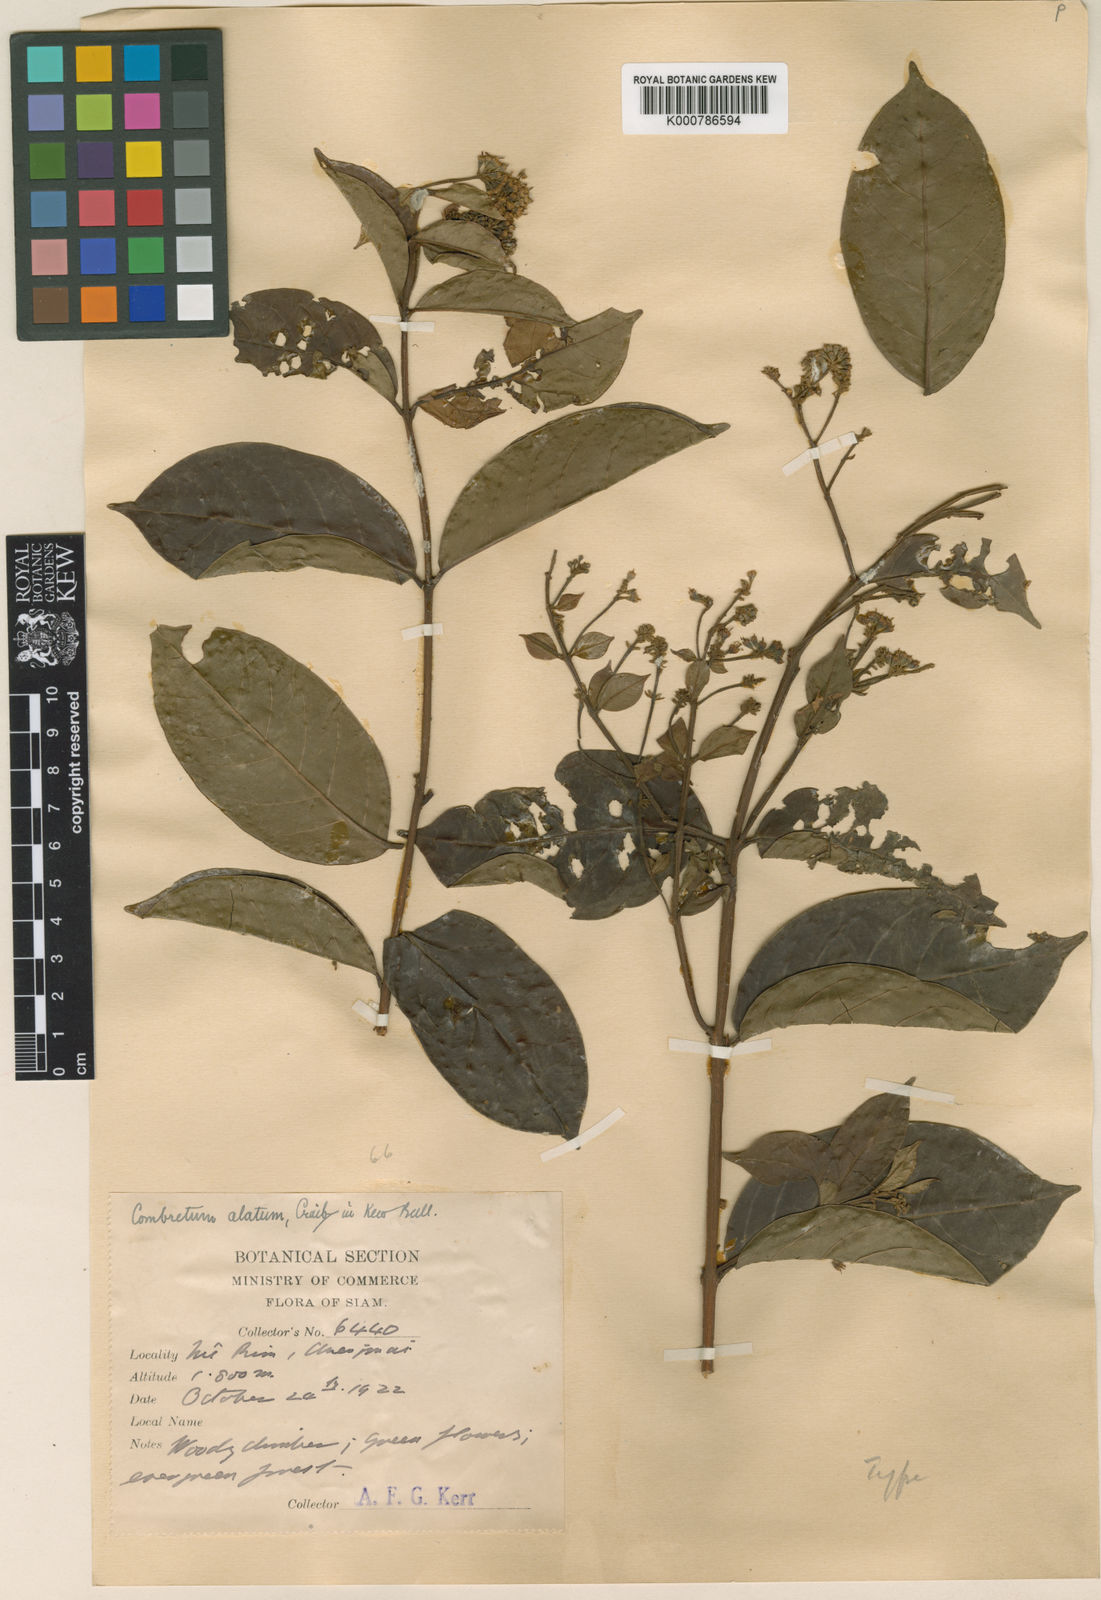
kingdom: Plantae
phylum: Tracheophyta
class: Magnoliopsida
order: Myrtales
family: Combretaceae
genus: Combretum
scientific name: Combretum punctatum
